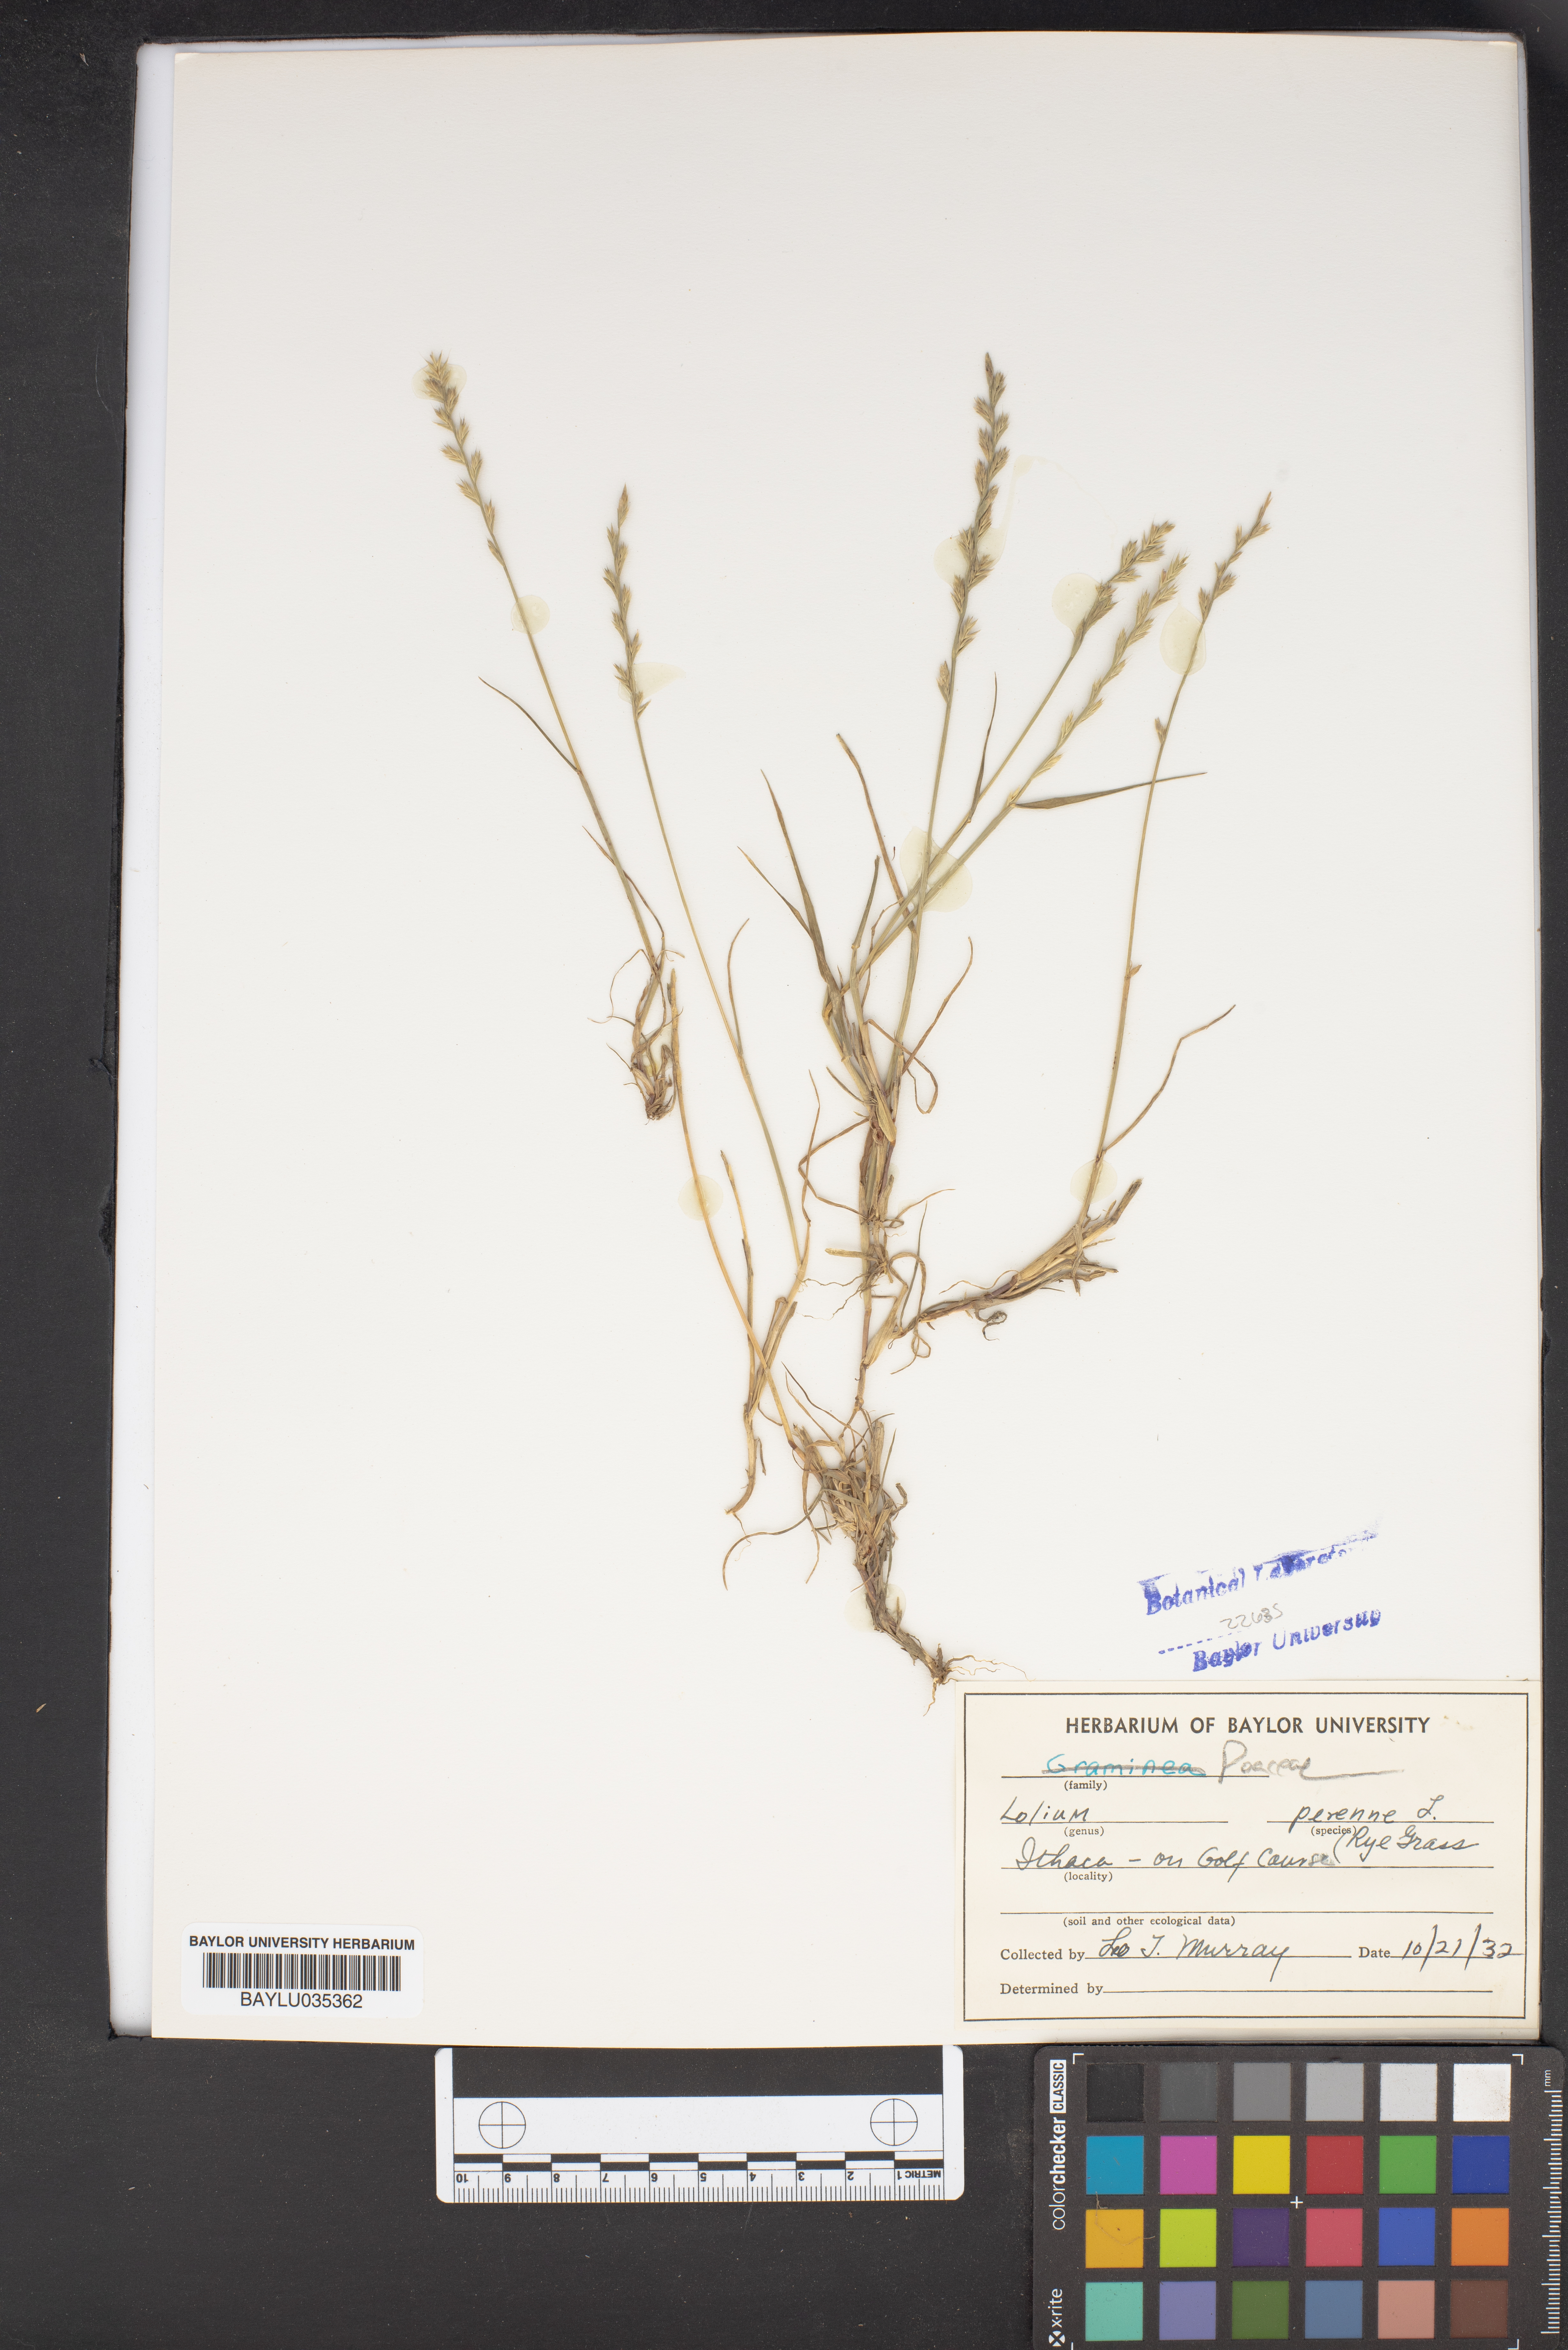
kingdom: Plantae
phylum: Tracheophyta
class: Liliopsida
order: Poales
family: Poaceae
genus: Lolium
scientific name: Lolium perenne
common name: Perennial ryegrass
